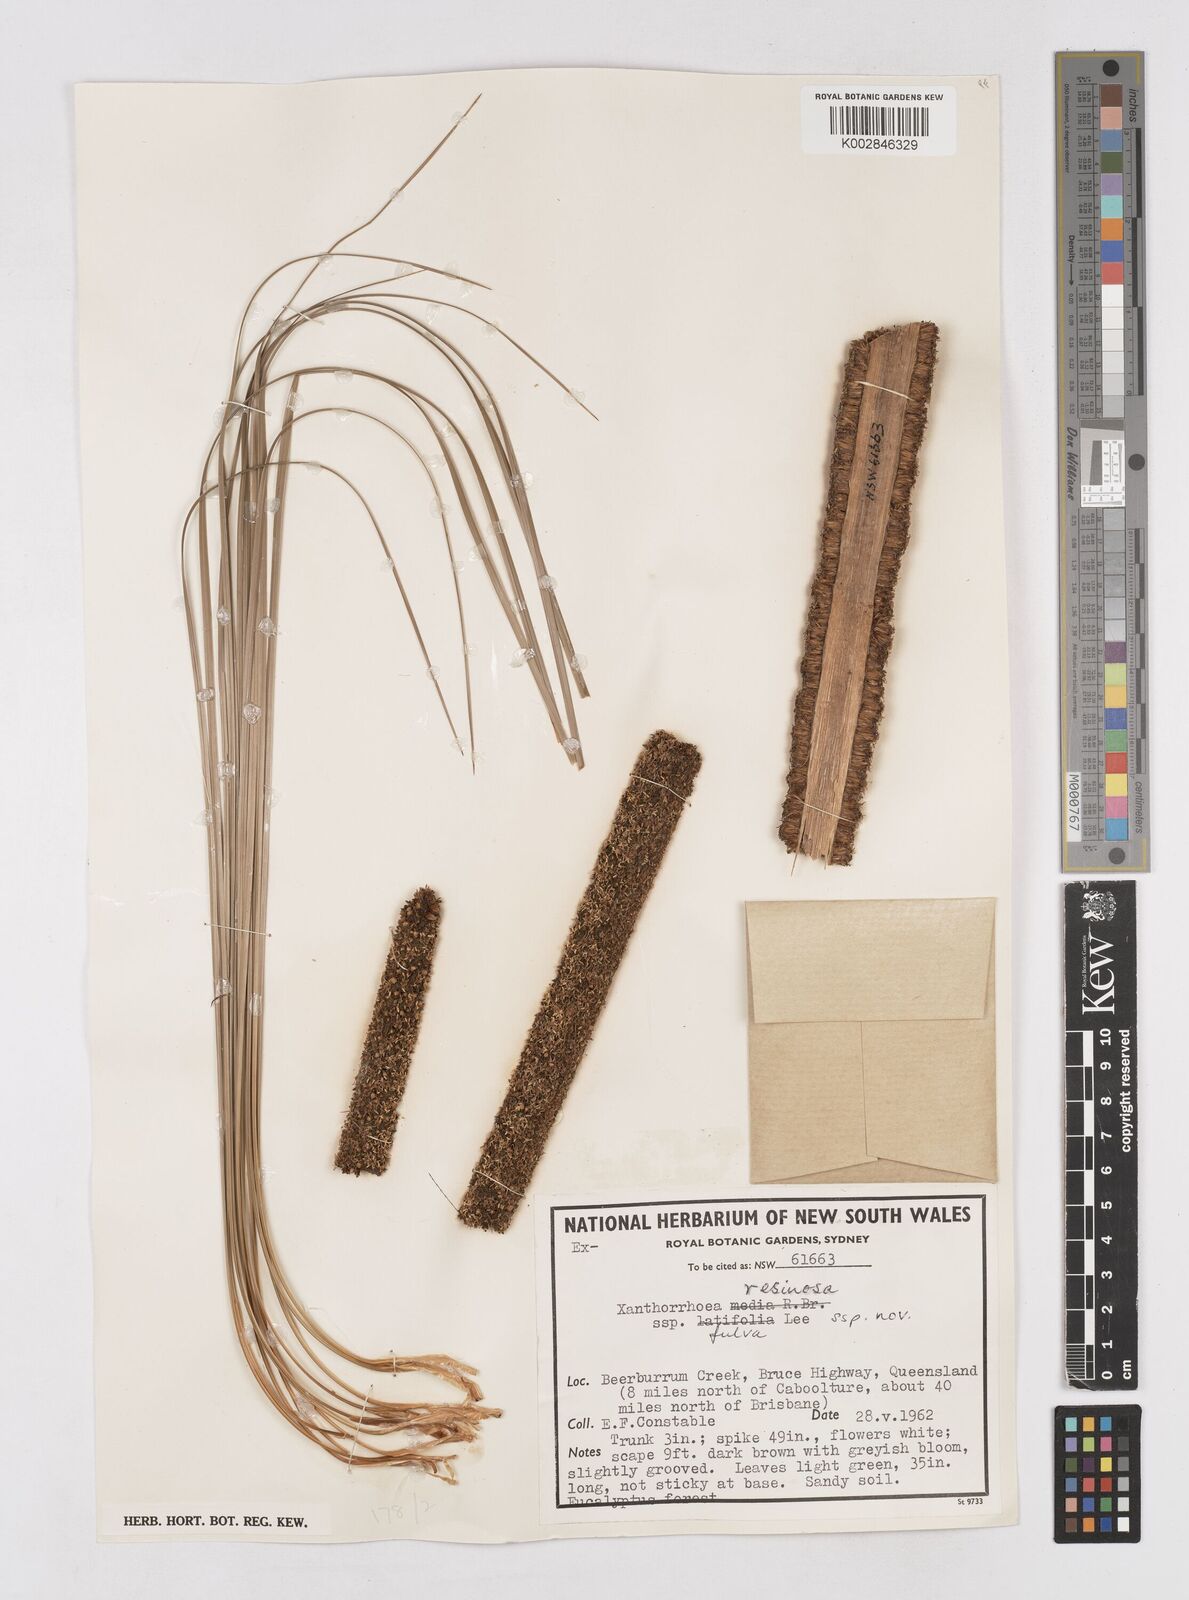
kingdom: Plantae
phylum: Tracheophyta
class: Liliopsida
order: Asparagales
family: Asphodelaceae
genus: Xanthorrhoea
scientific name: Xanthorrhoea fulva
